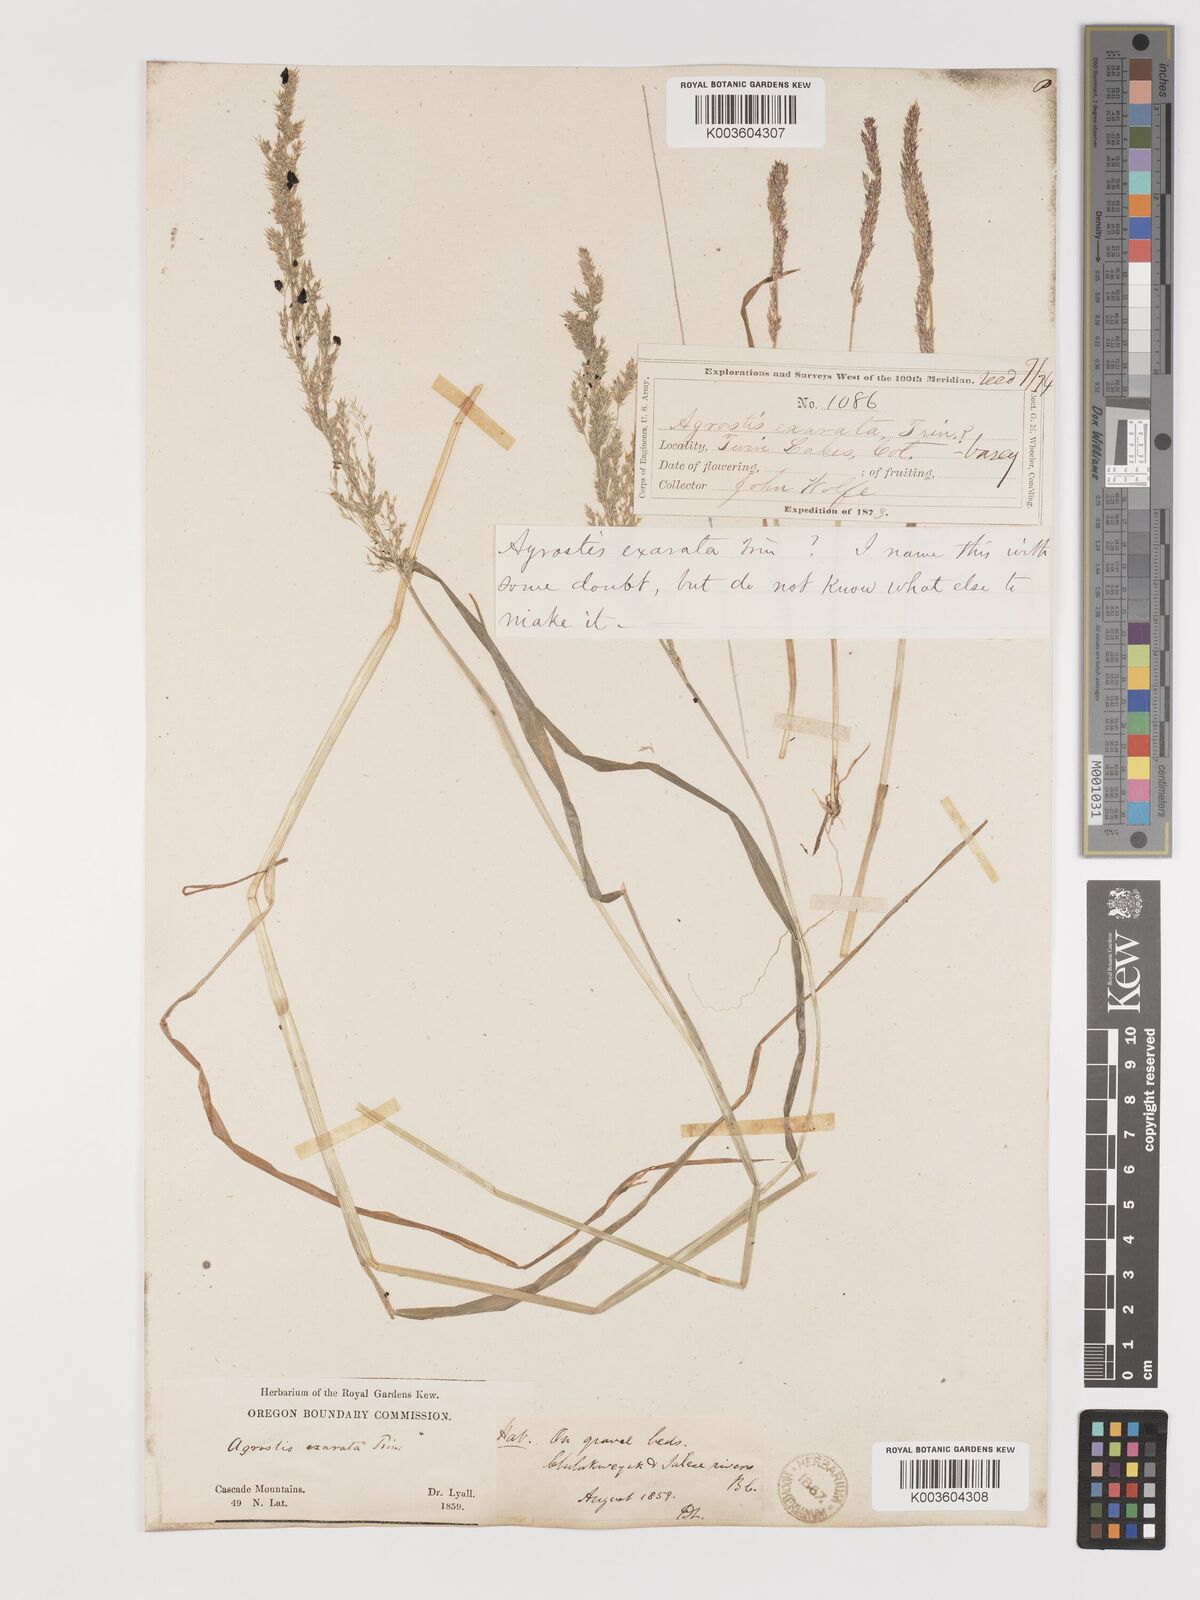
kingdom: Plantae
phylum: Tracheophyta
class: Liliopsida
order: Poales
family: Poaceae
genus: Agrostis
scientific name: Agrostis exarata
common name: Spike bent
